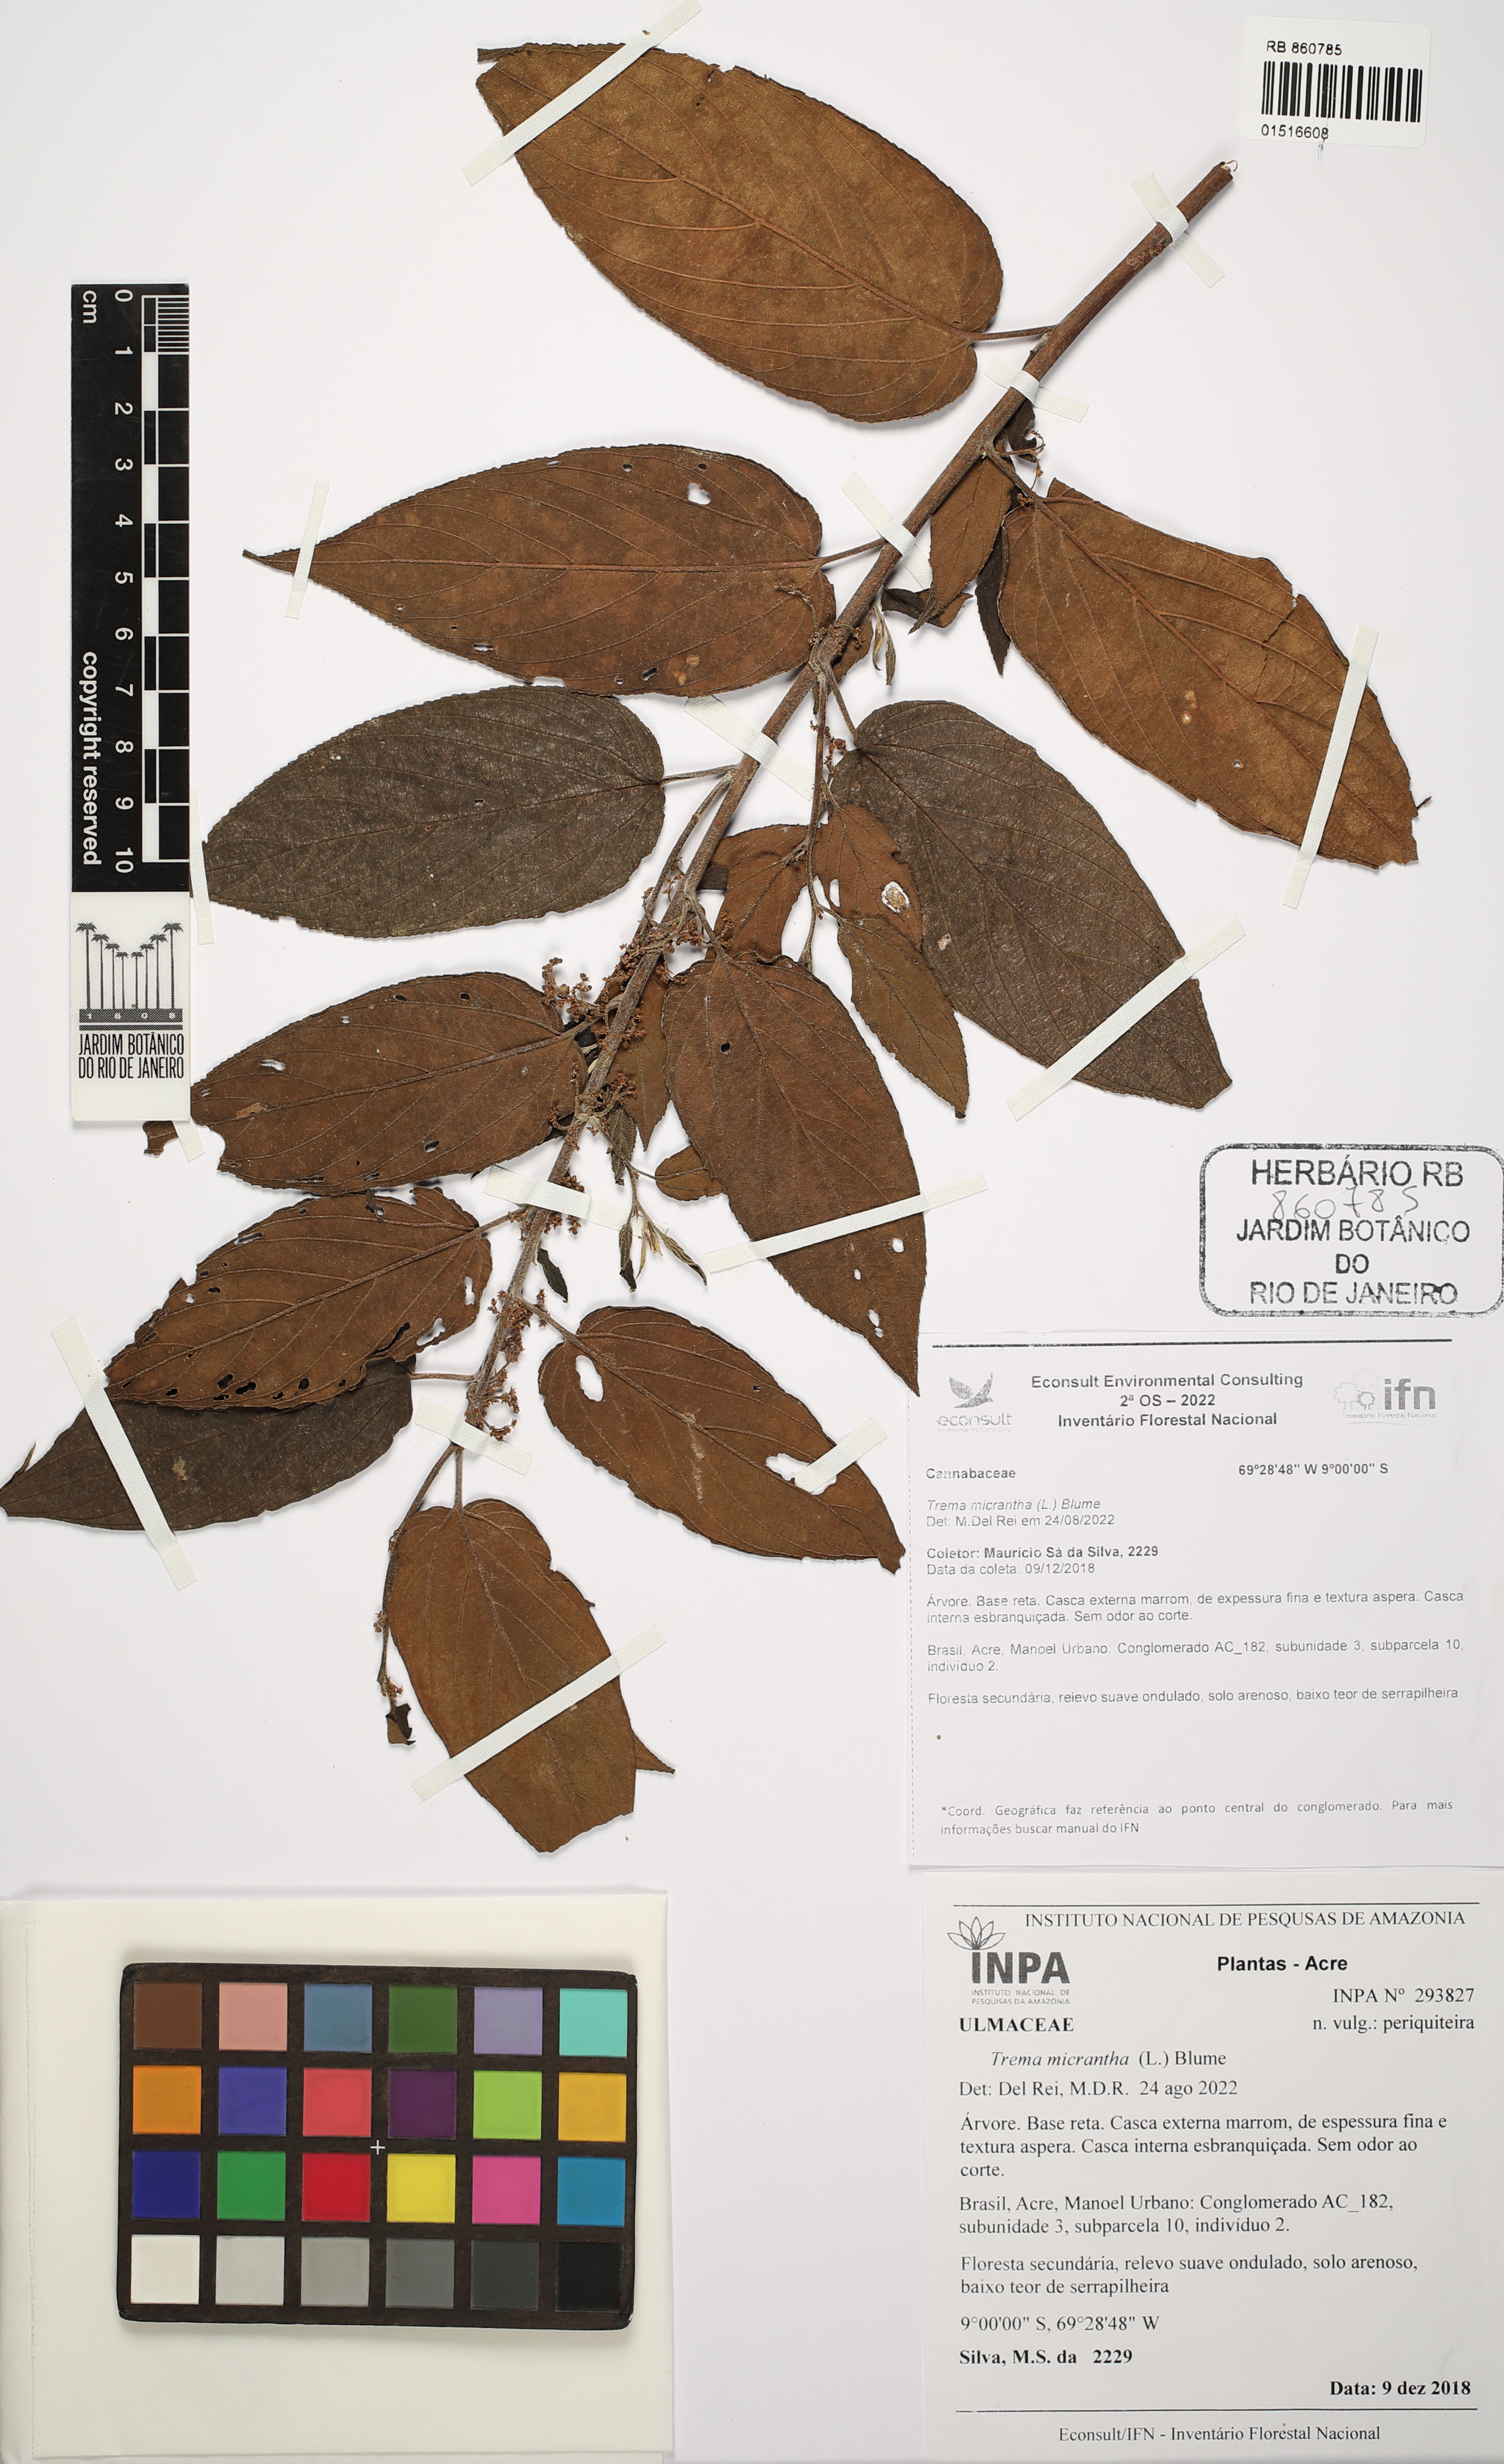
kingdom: Plantae
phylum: Tracheophyta
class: Magnoliopsida
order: Rosales
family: Cannabaceae
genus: Trema
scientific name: Trema micranthum
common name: Jamaican nettletree
